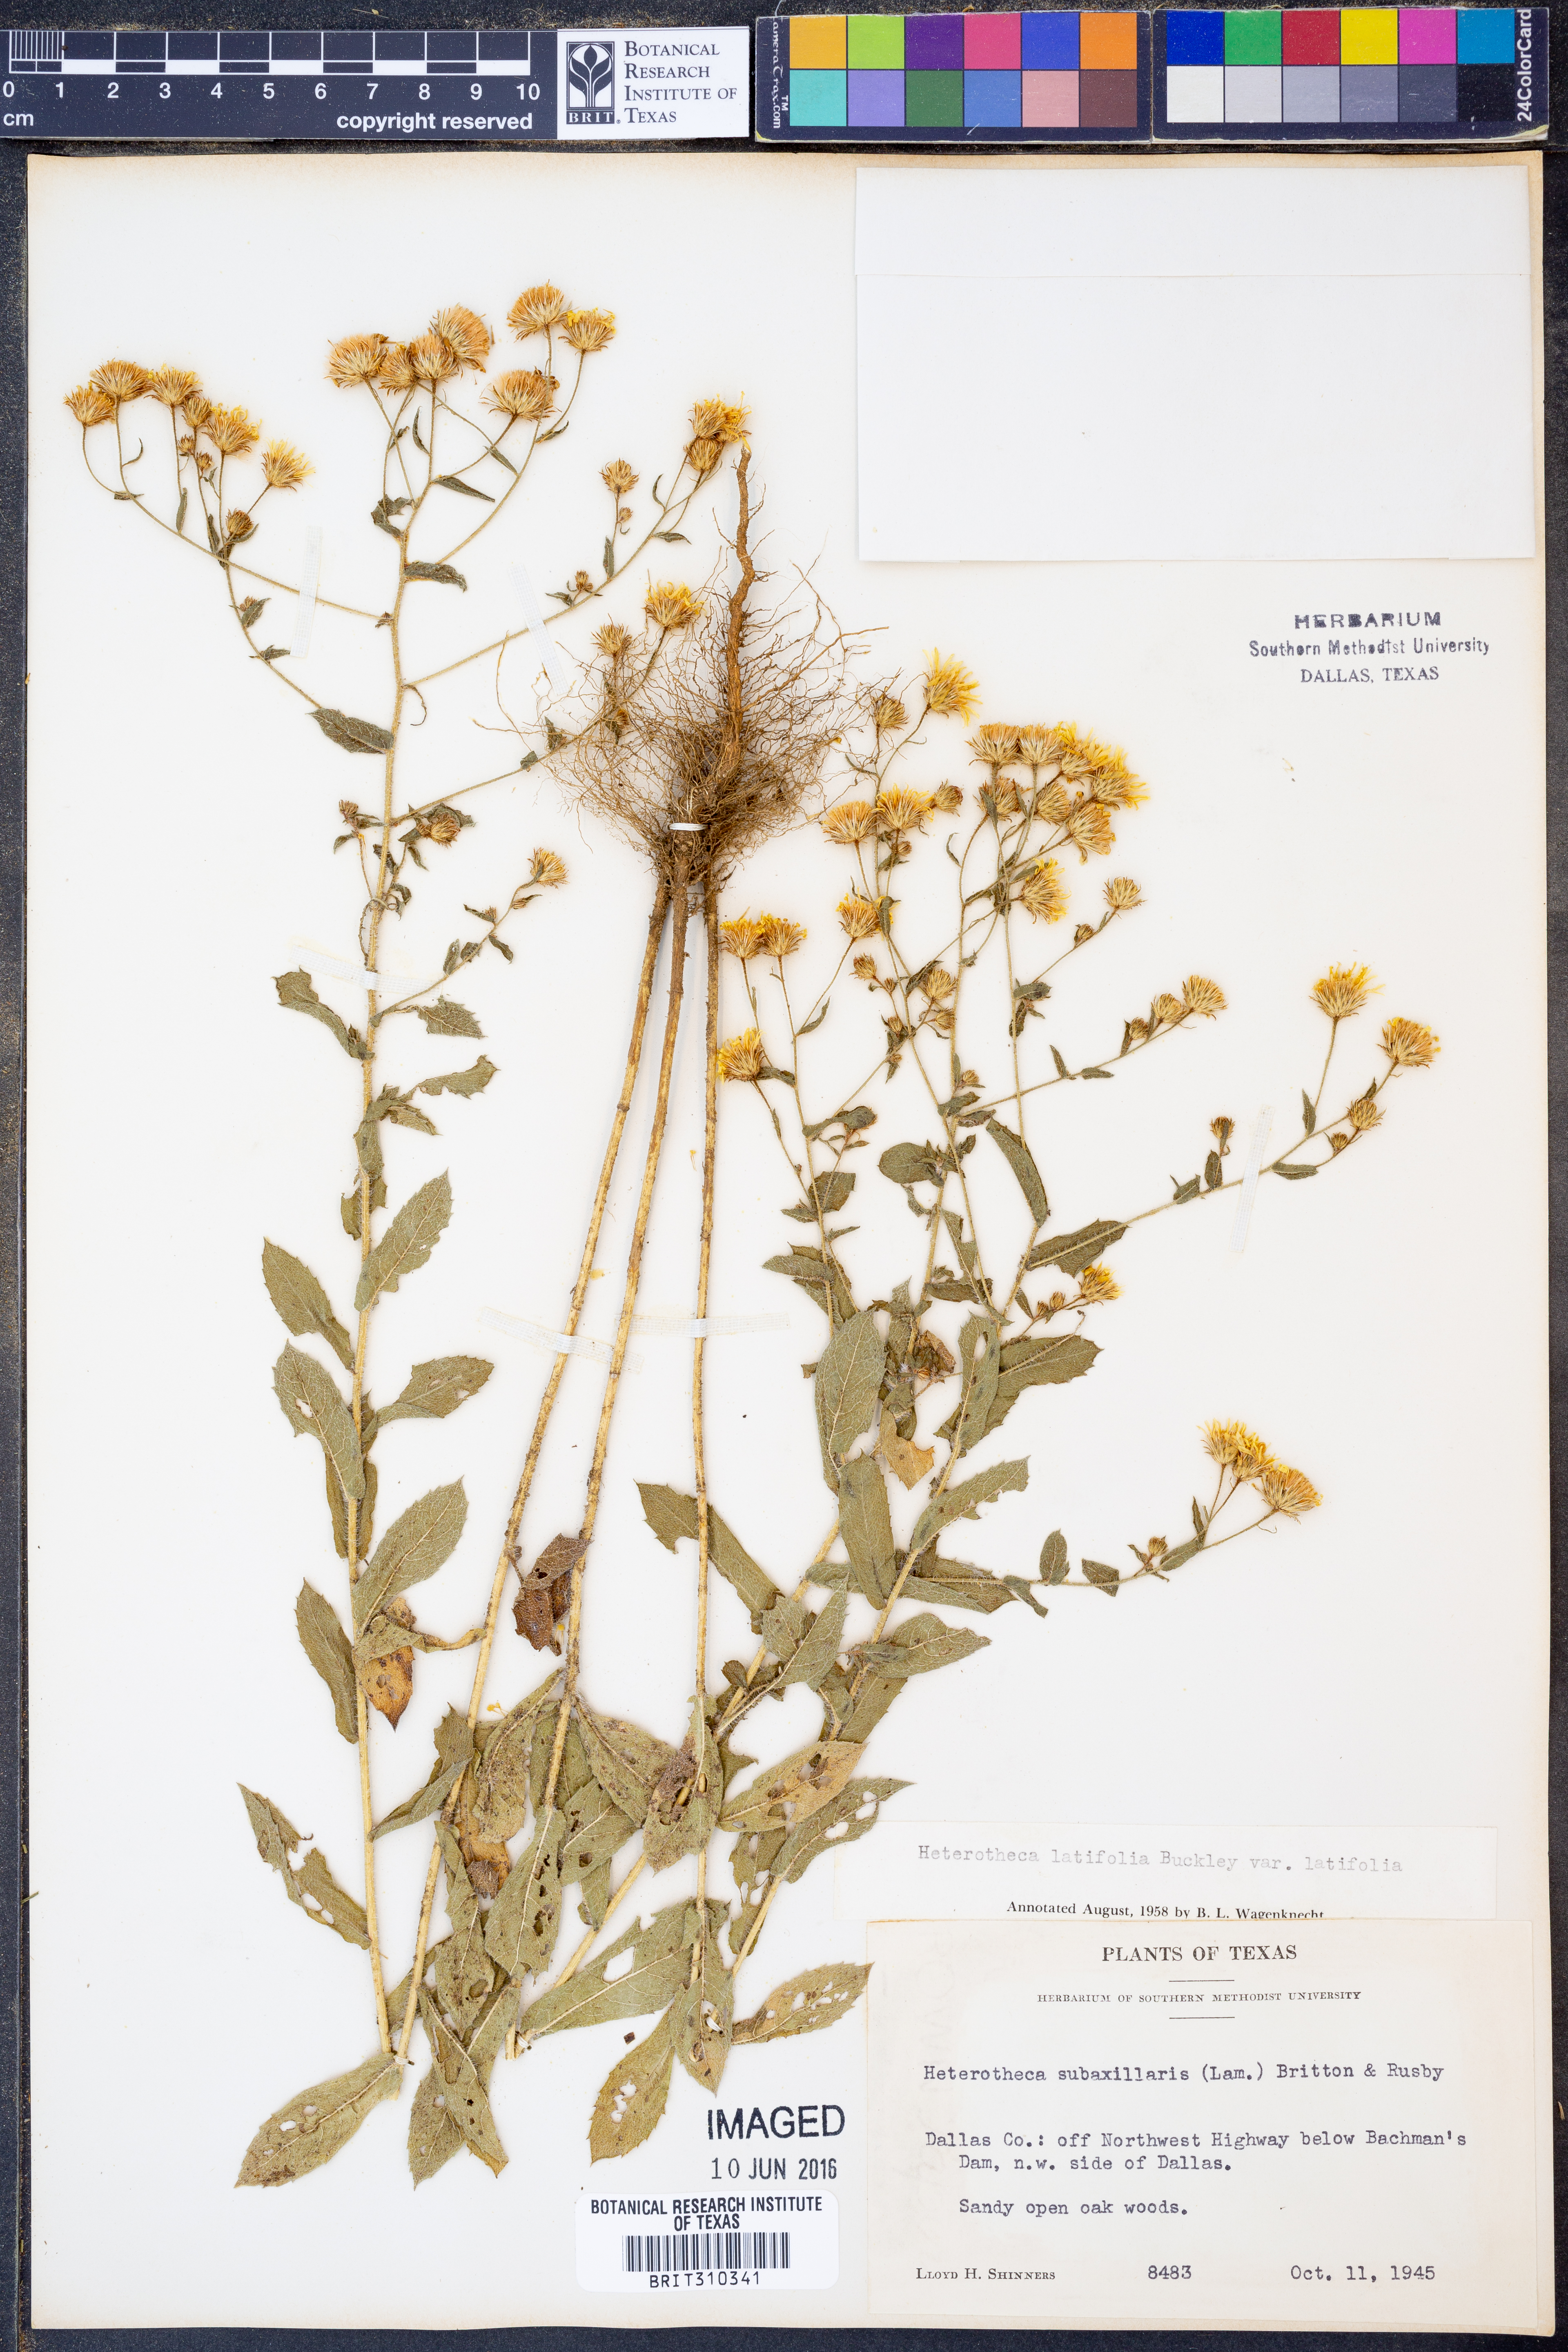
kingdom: Plantae
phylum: Tracheophyta
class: Magnoliopsida
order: Asterales
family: Asteraceae
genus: Heterotheca
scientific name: Heterotheca subaxillaris
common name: Camphorweed
